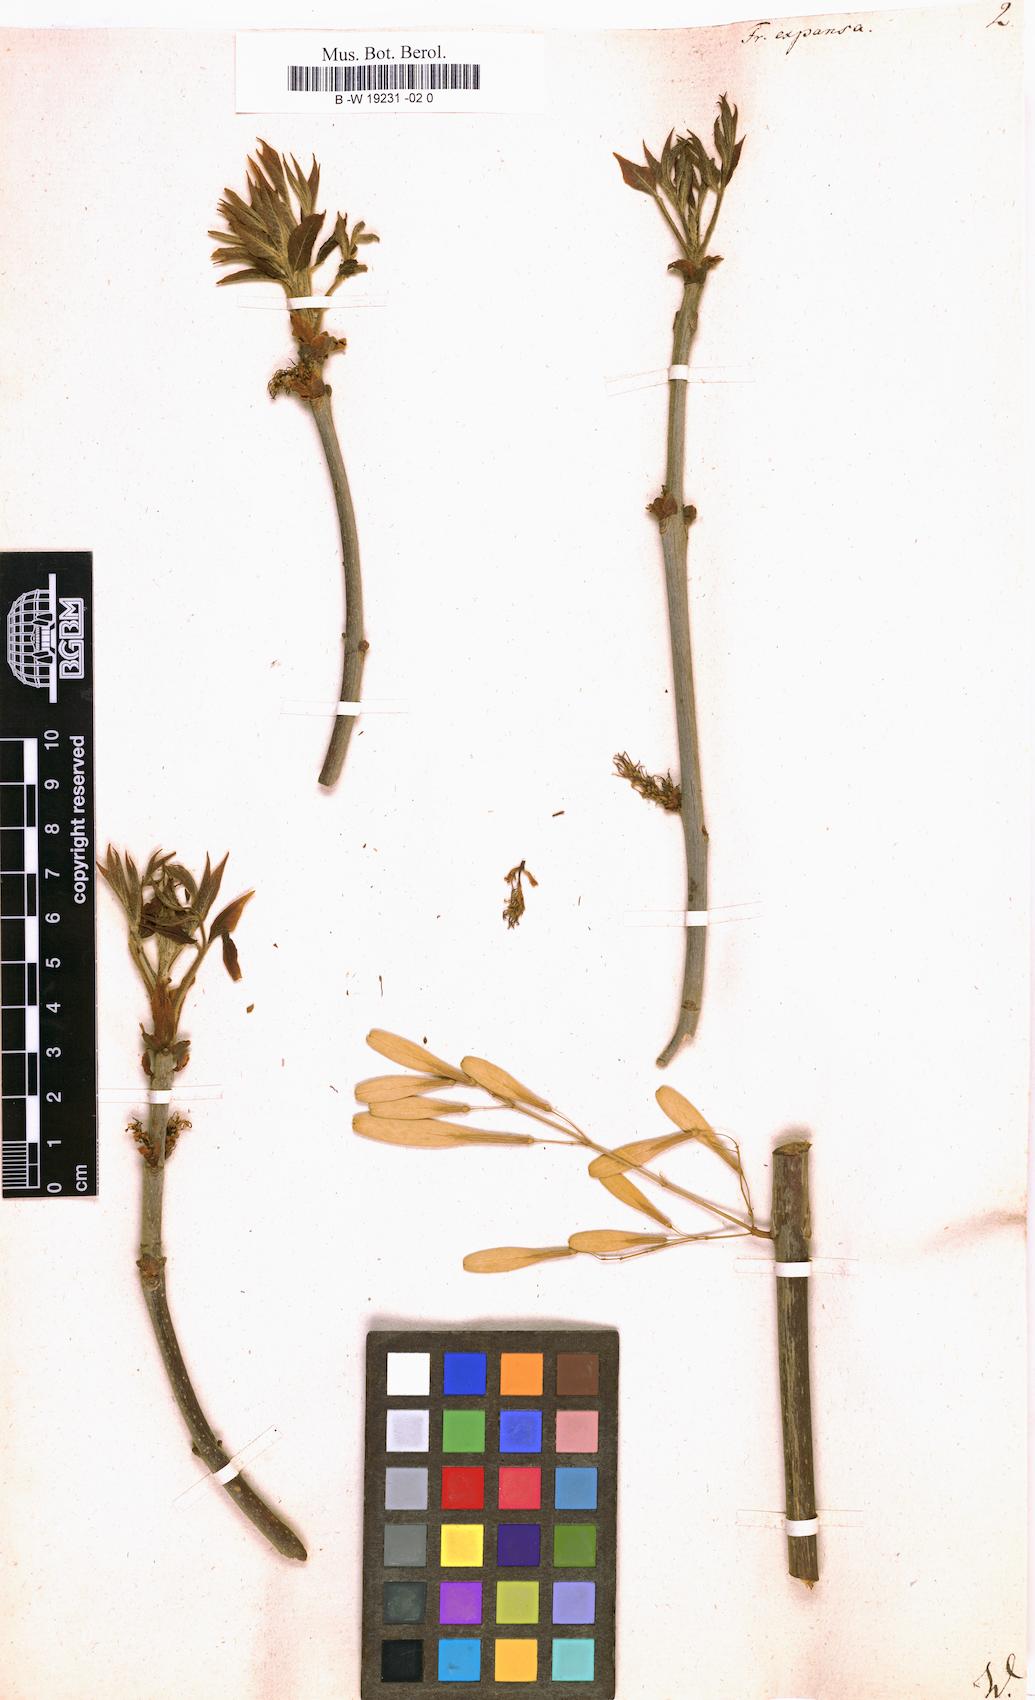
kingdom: Plantae
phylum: Tracheophyta
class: Magnoliopsida
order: Lamiales
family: Oleaceae
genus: Fraxinus
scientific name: Fraxinus pennsylvanica
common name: Green ash
